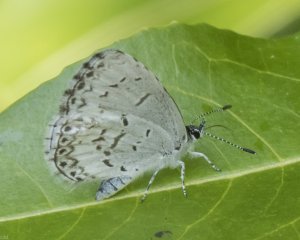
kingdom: Animalia
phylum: Arthropoda
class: Insecta
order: Lepidoptera
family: Lycaenidae
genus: Cyaniris
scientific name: Cyaniris neglecta
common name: Summer Azure
